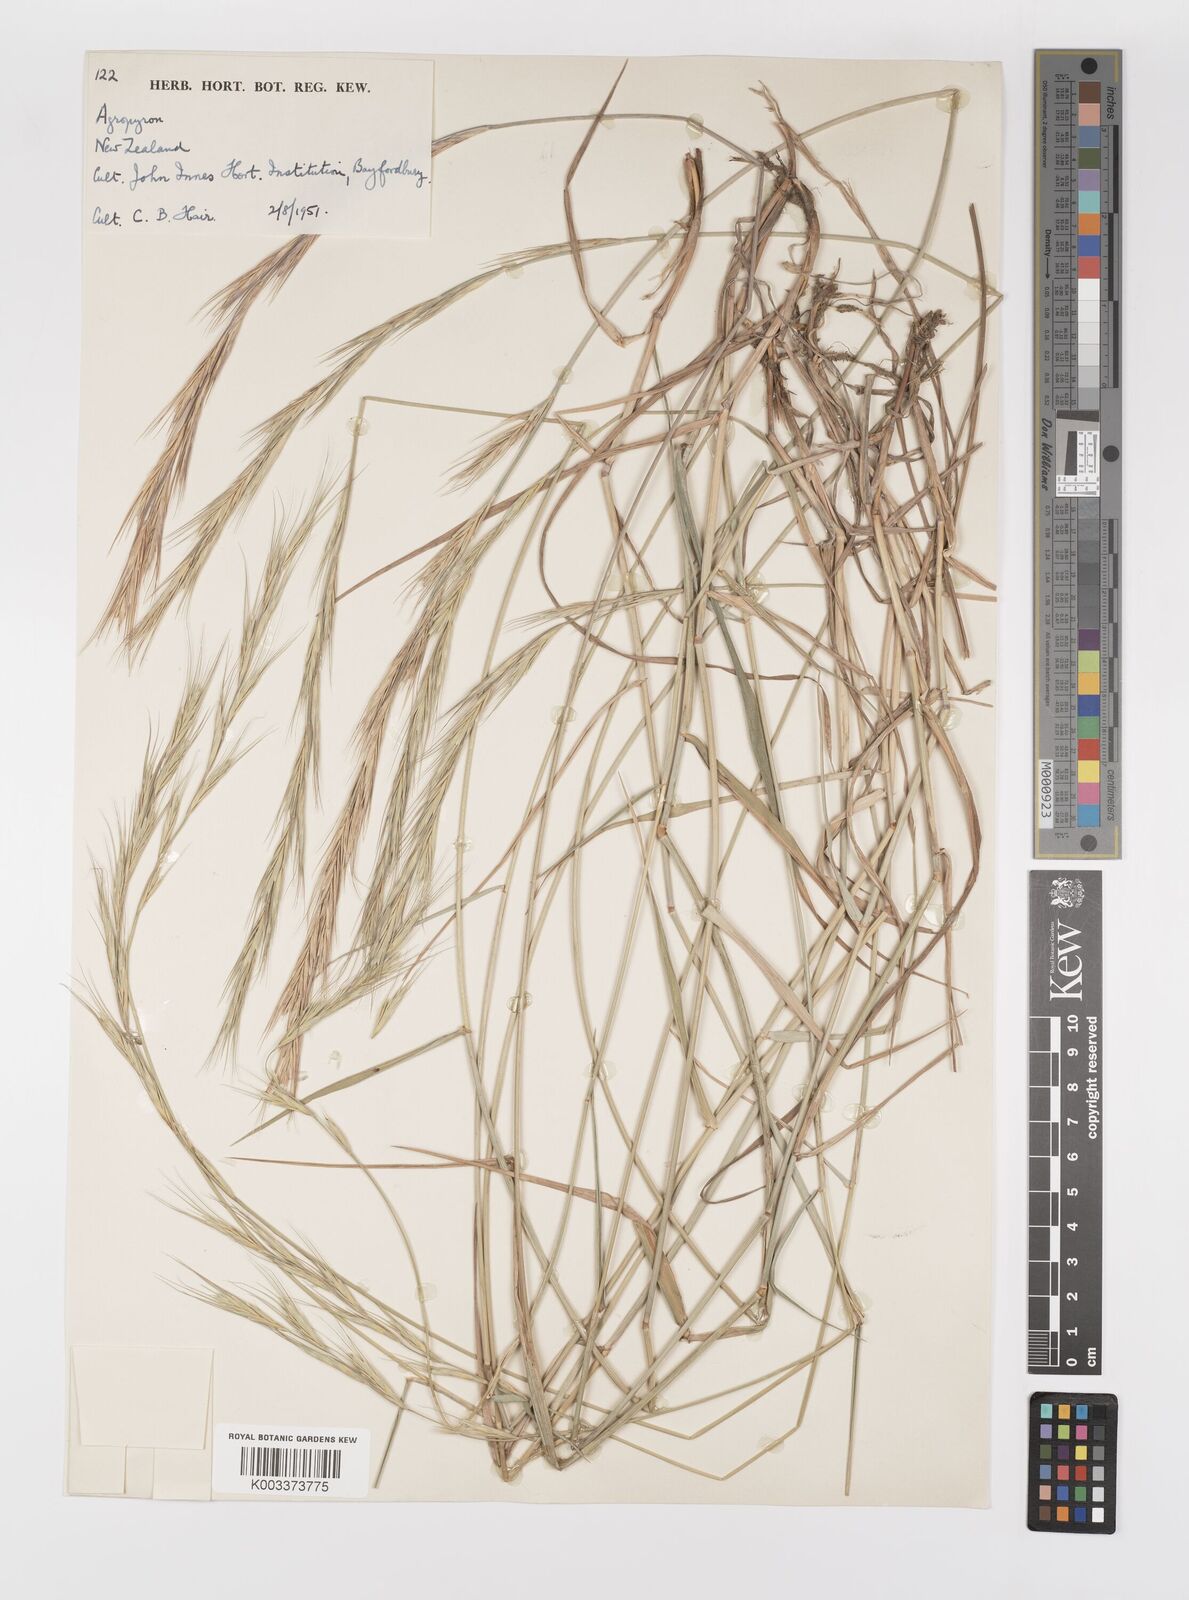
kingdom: Plantae
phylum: Tracheophyta
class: Liliopsida
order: Poales
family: Poaceae
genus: Elymus
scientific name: Elymus
